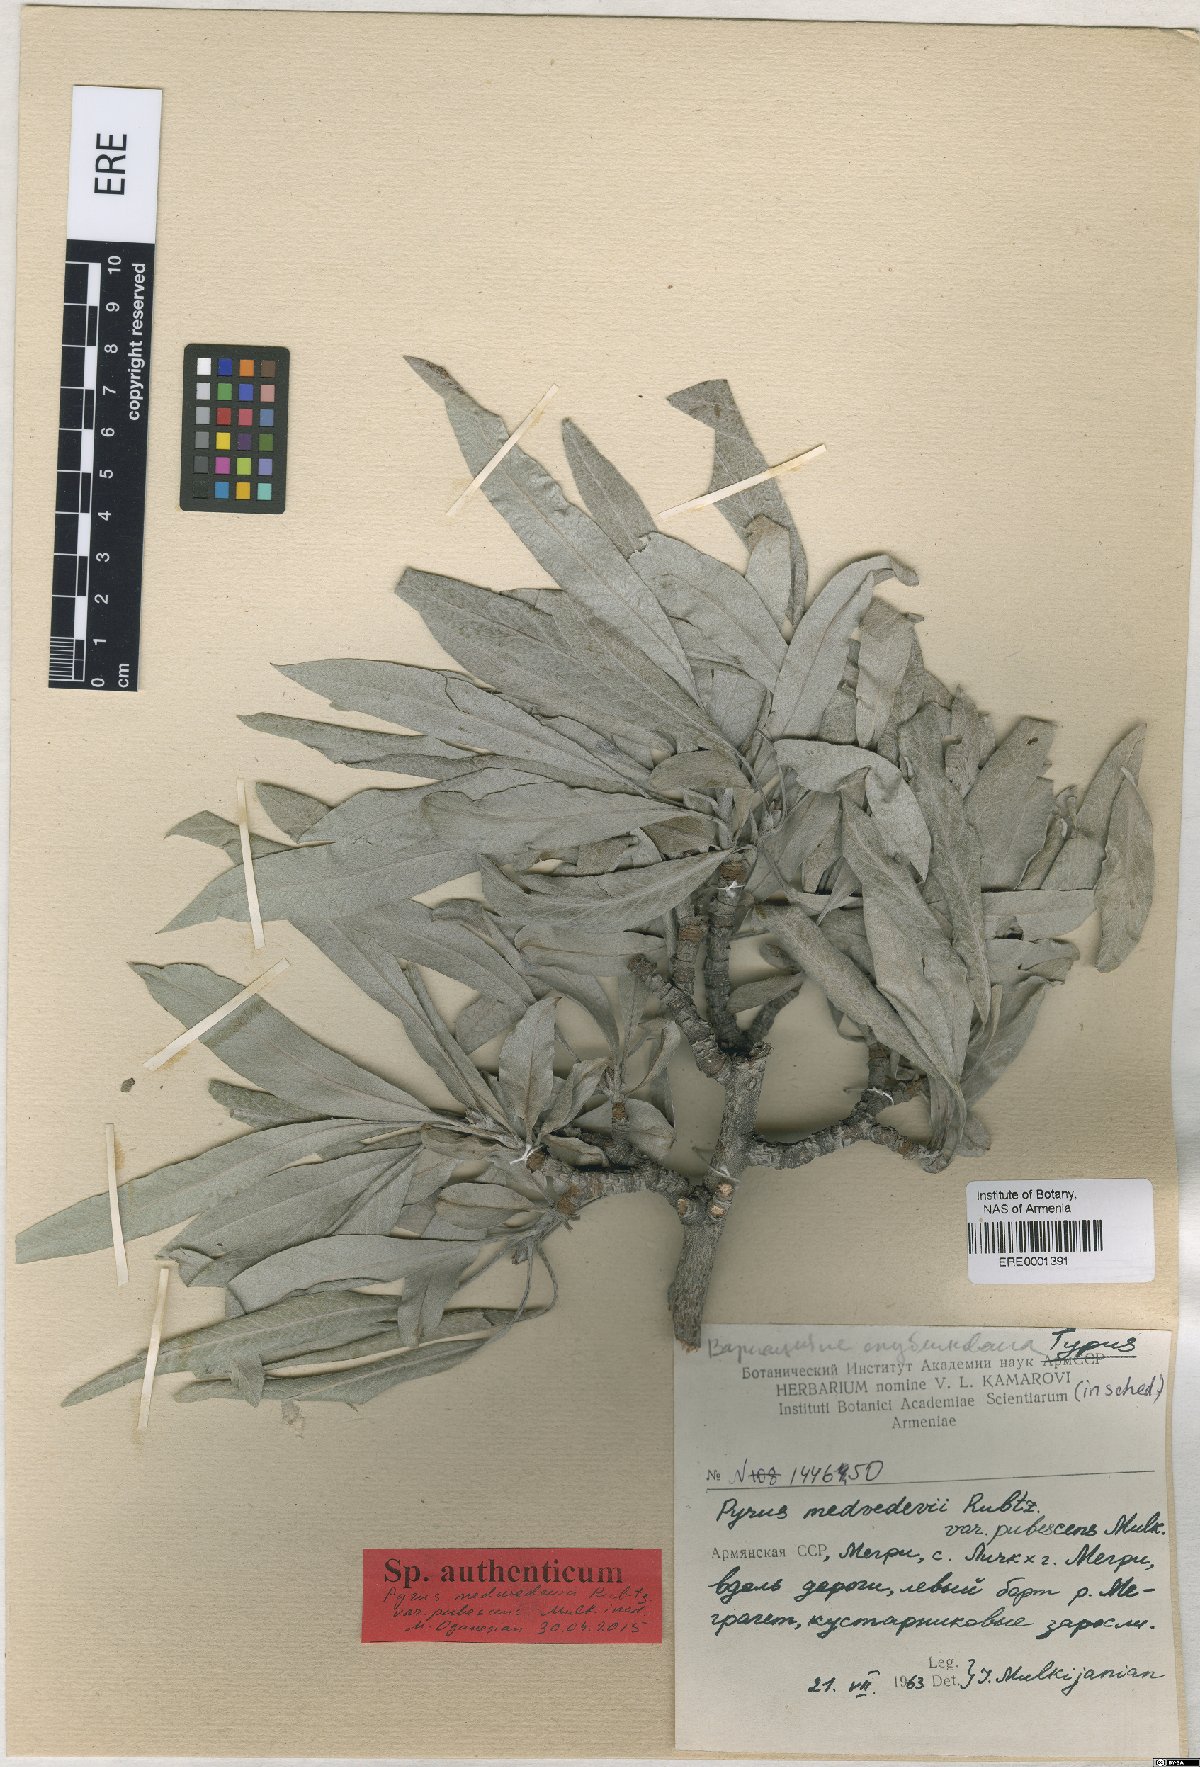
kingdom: Plantae
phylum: Tracheophyta
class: Magnoliopsida
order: Rosales
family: Rosaceae
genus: Pyrus
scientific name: Pyrus medvedevii
